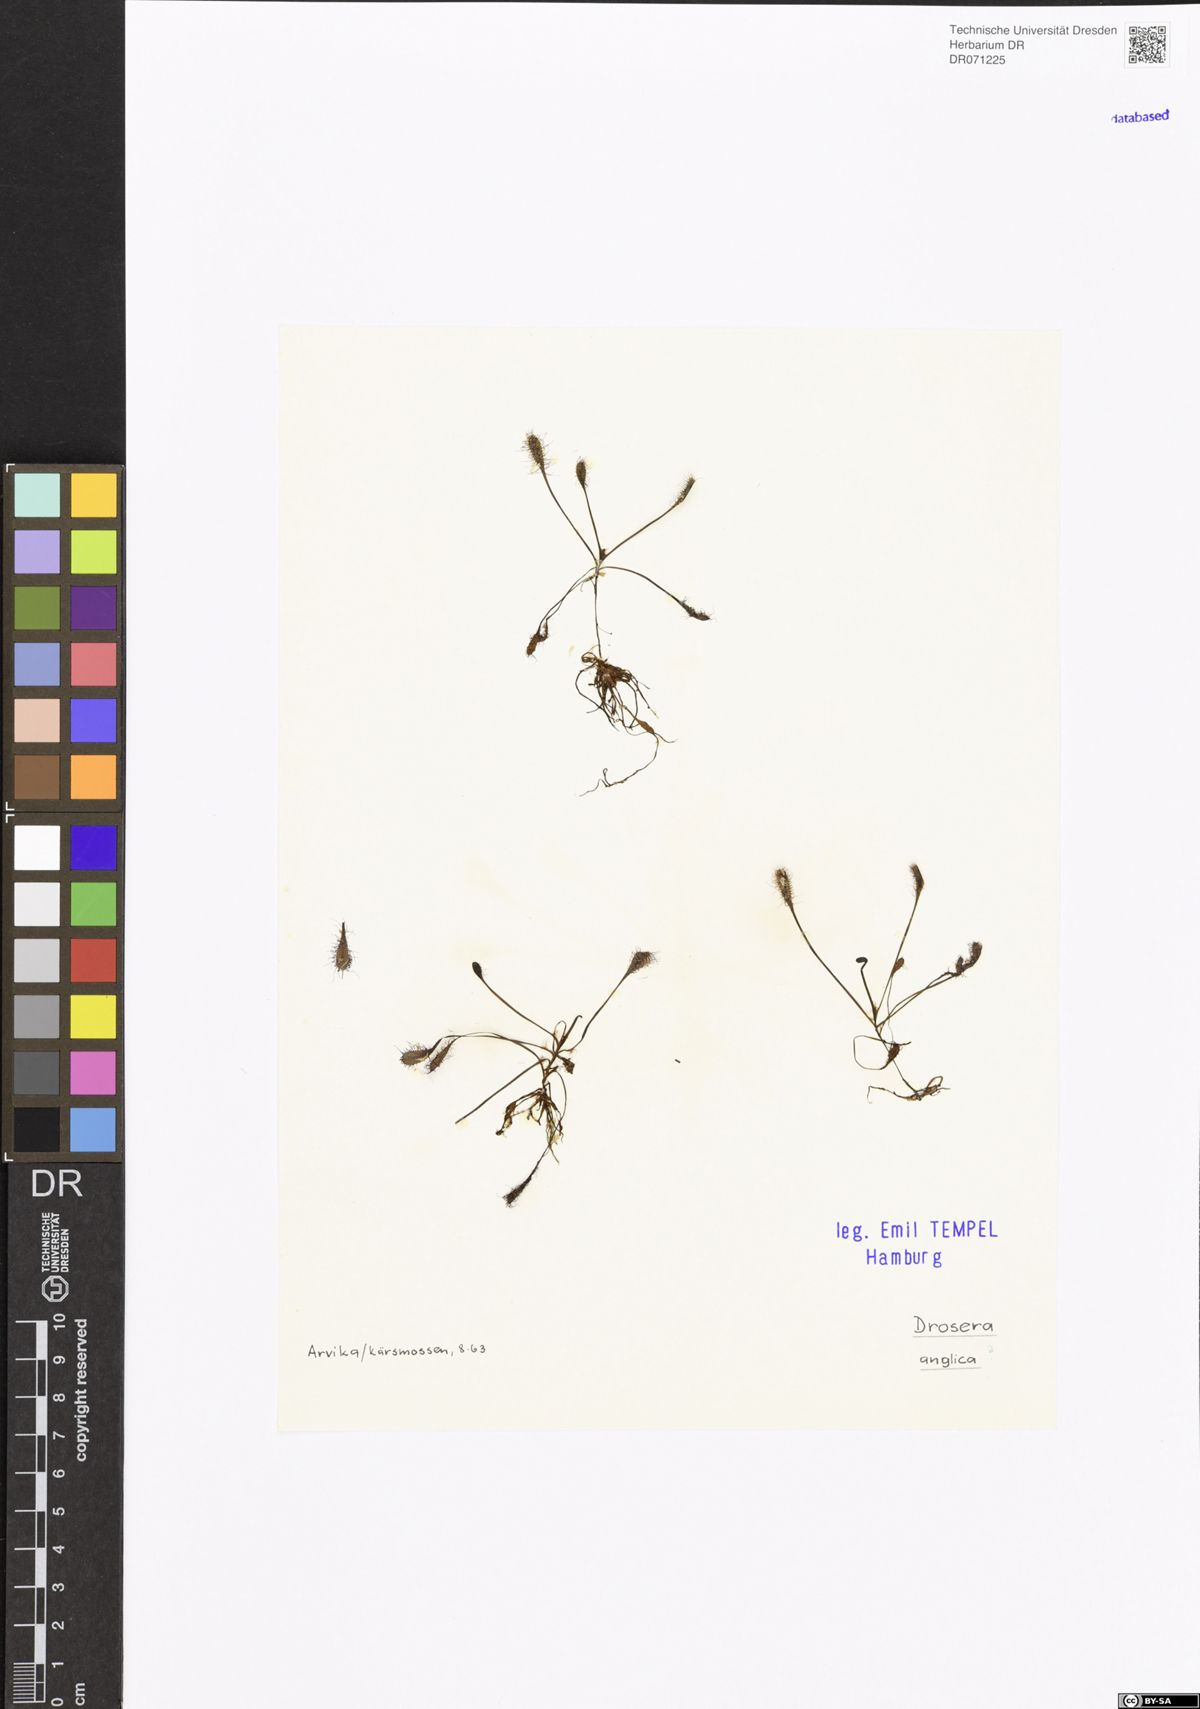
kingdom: Plantae
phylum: Tracheophyta
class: Magnoliopsida
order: Caryophyllales
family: Droseraceae
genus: Drosera
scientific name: Drosera anglica
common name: Great sundew
